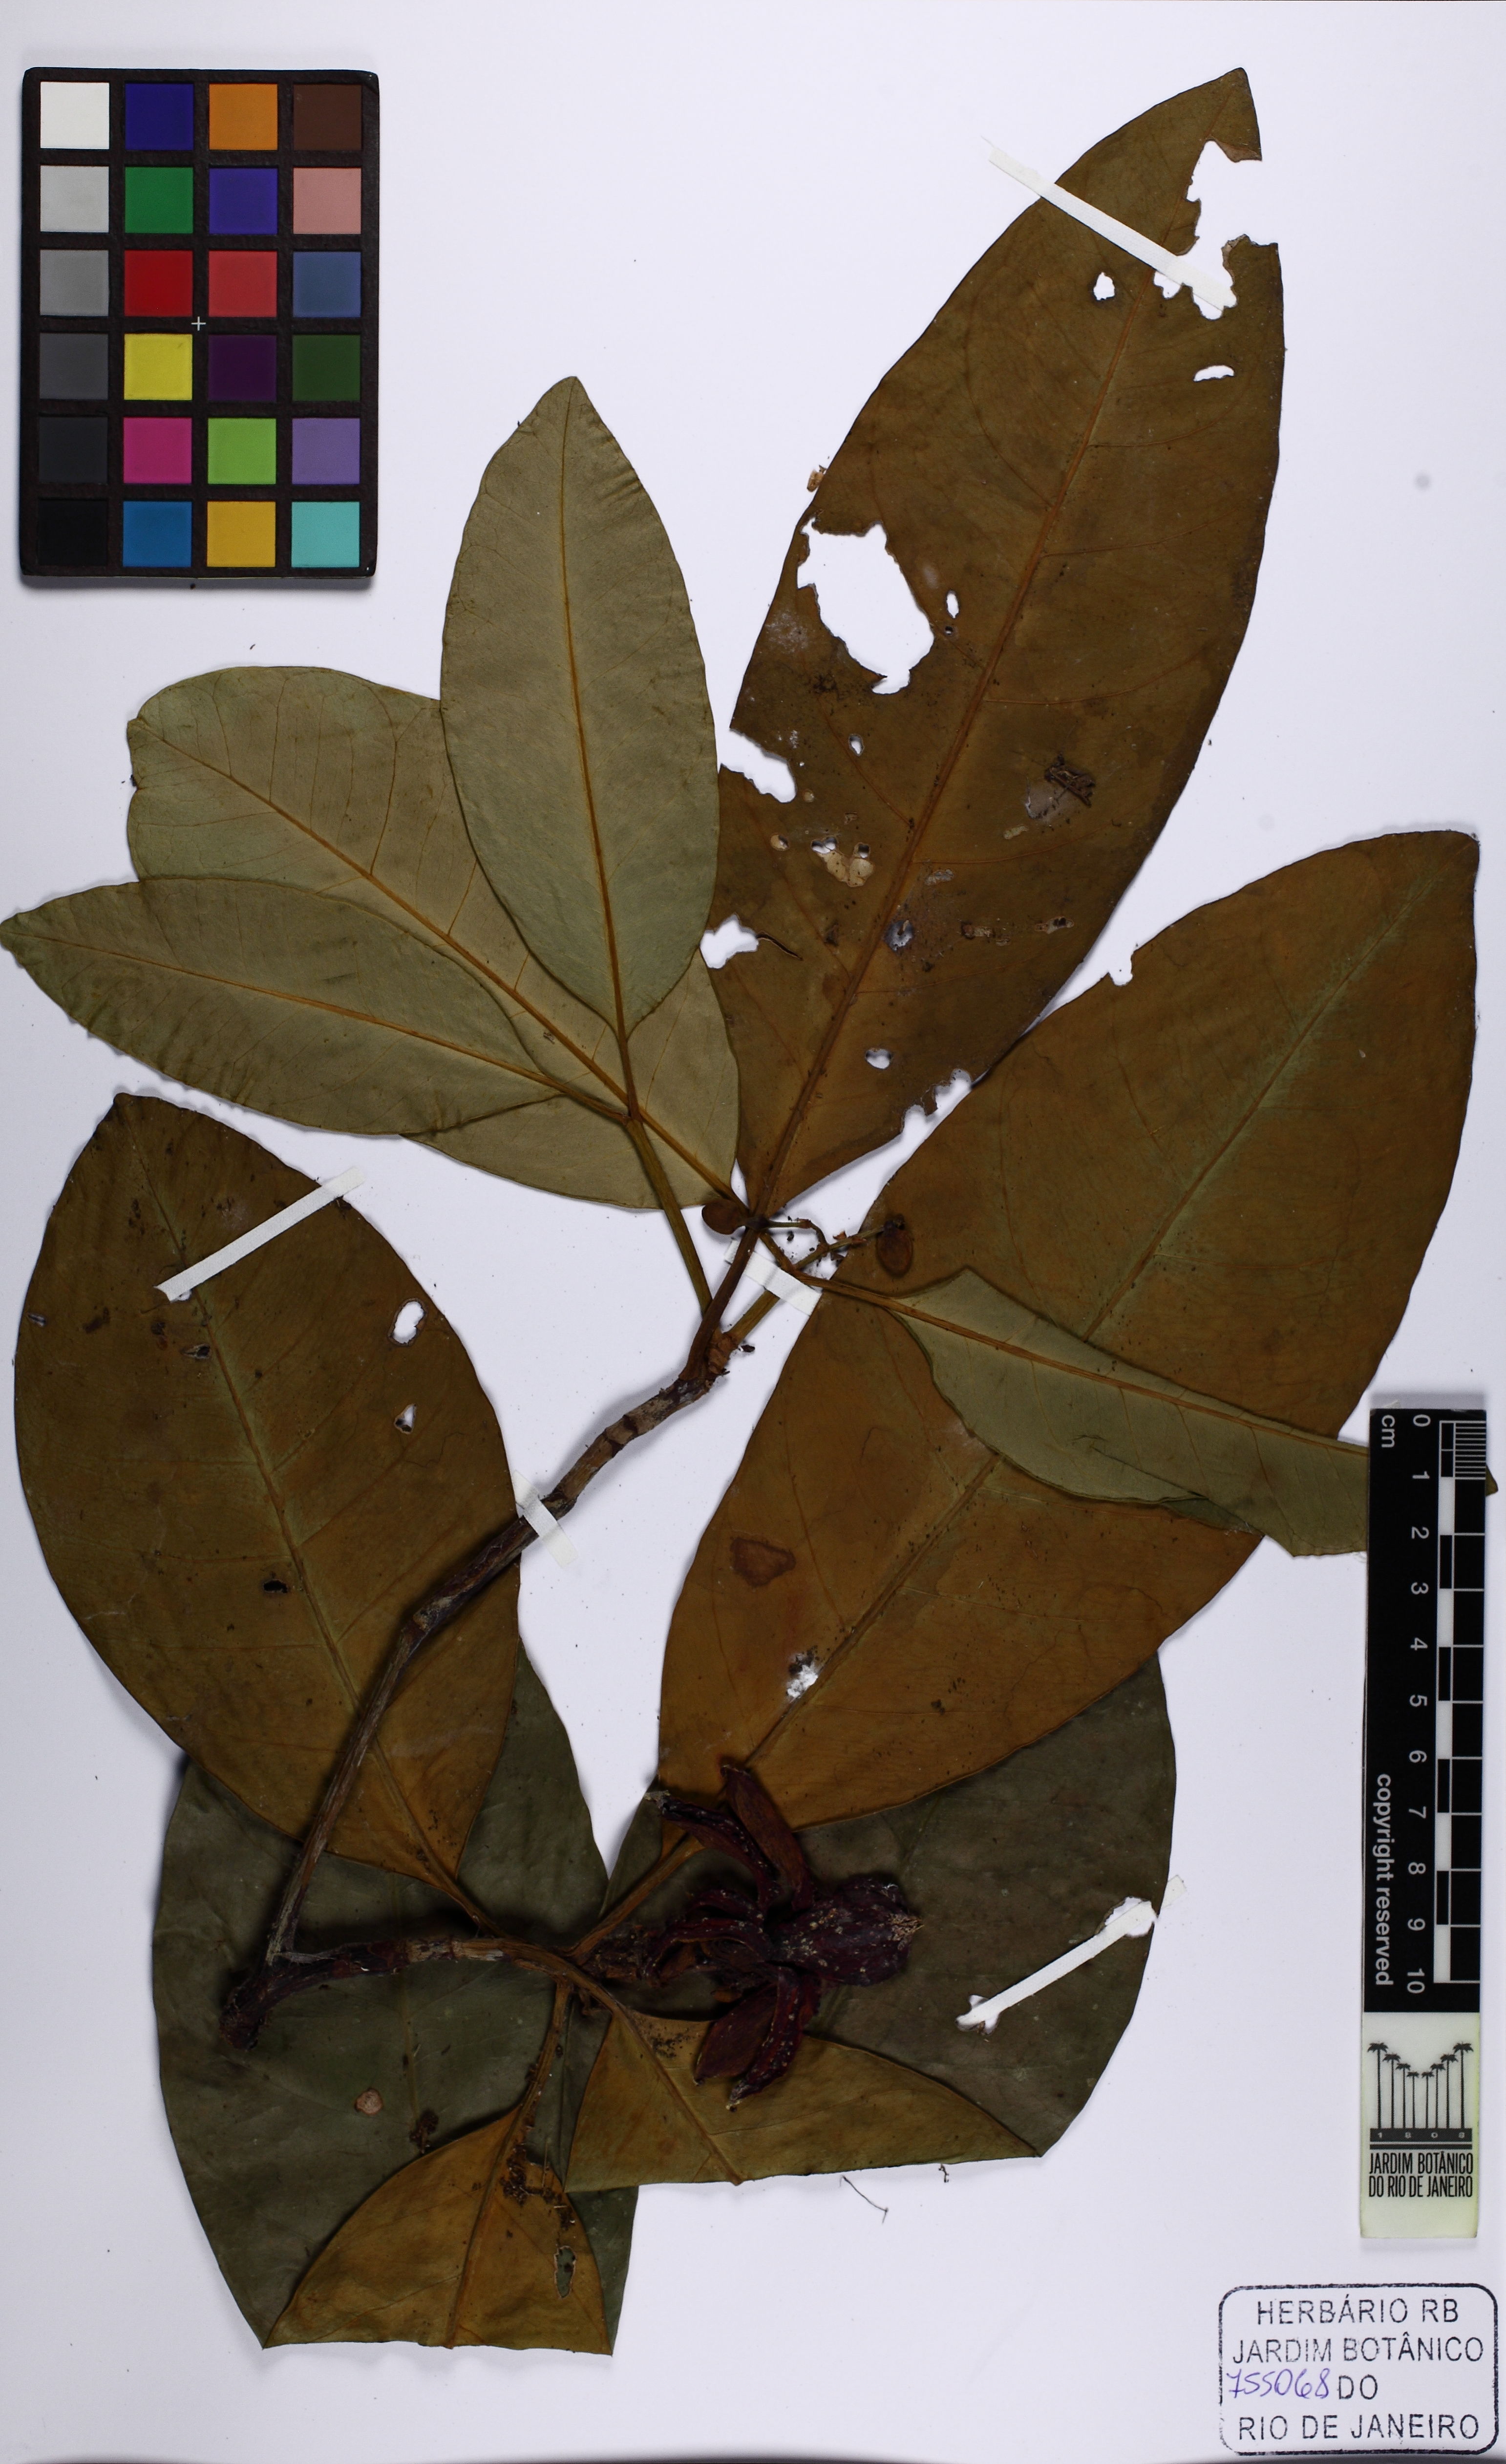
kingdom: Plantae
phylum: Tracheophyta
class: Magnoliopsida
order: Malpighiales
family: Clusiaceae
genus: Tovomita
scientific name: Tovomita laurina
